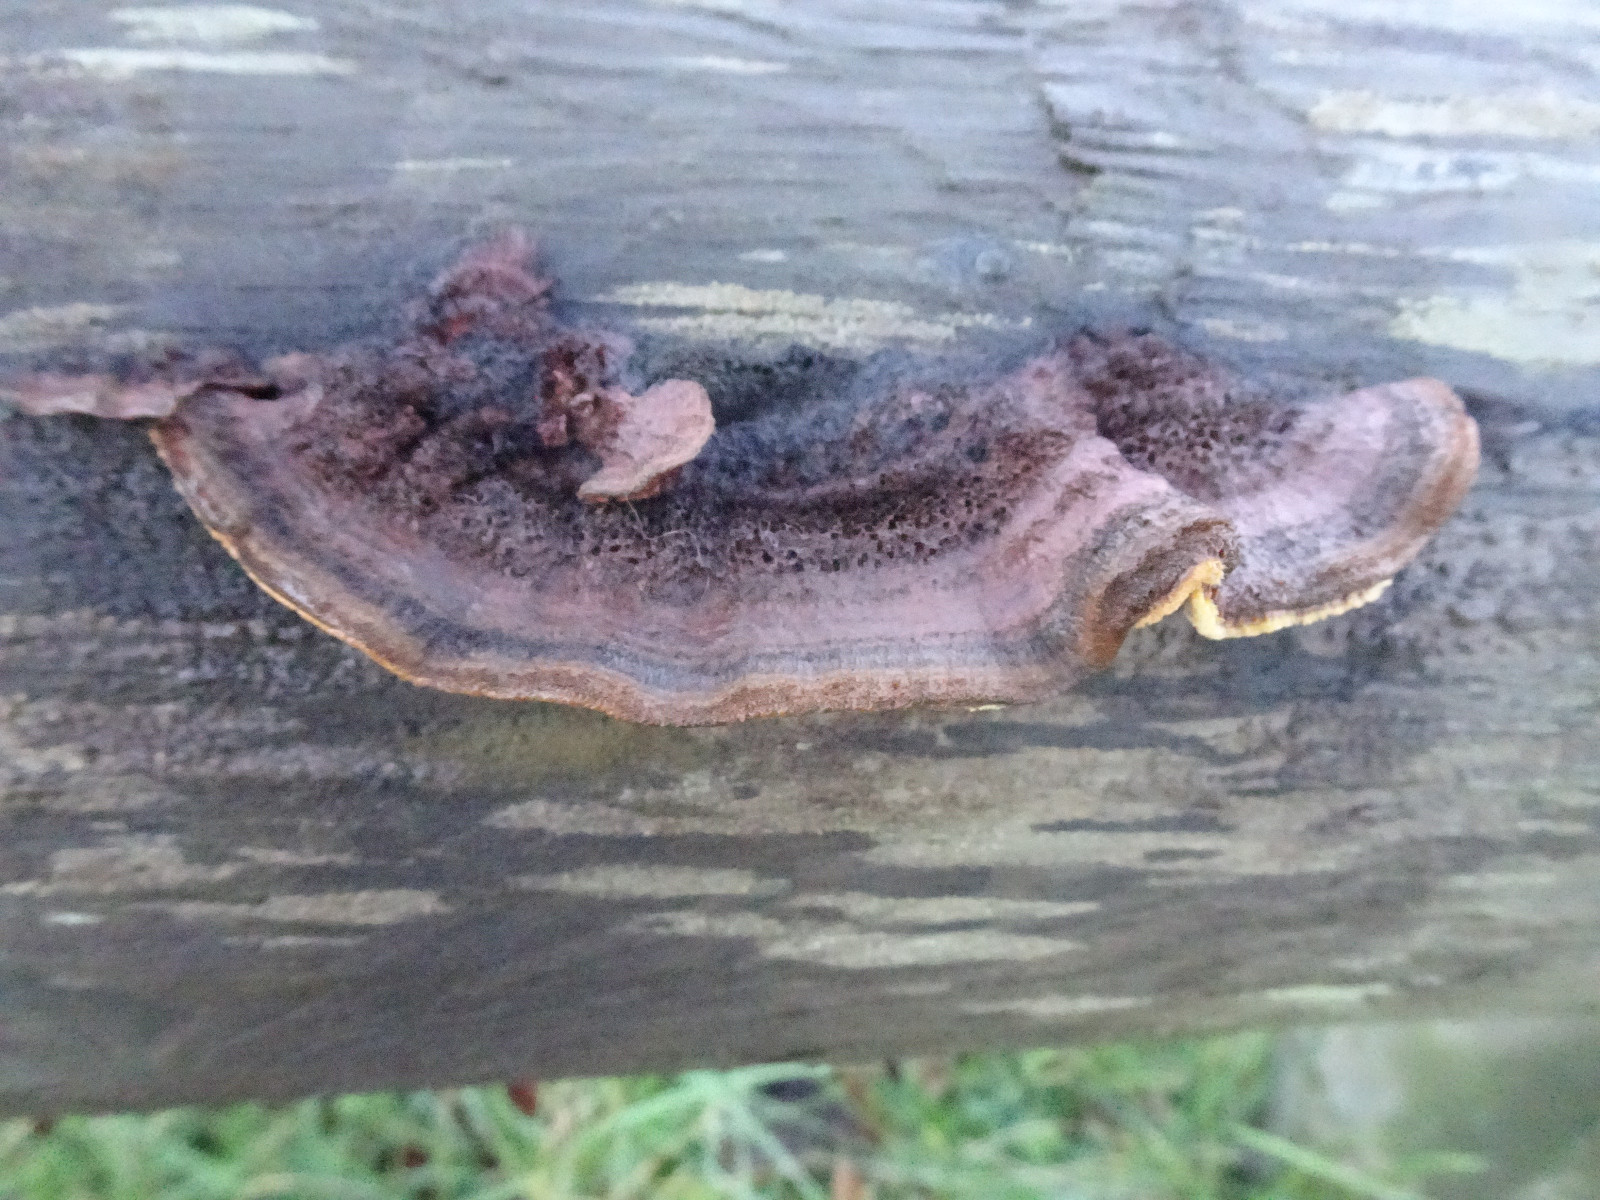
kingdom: Fungi
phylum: Basidiomycota
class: Agaricomycetes
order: Gloeophyllales
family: Gloeophyllaceae
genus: Gloeophyllum
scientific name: Gloeophyllum sepiarium
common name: fyrre-korkhat
